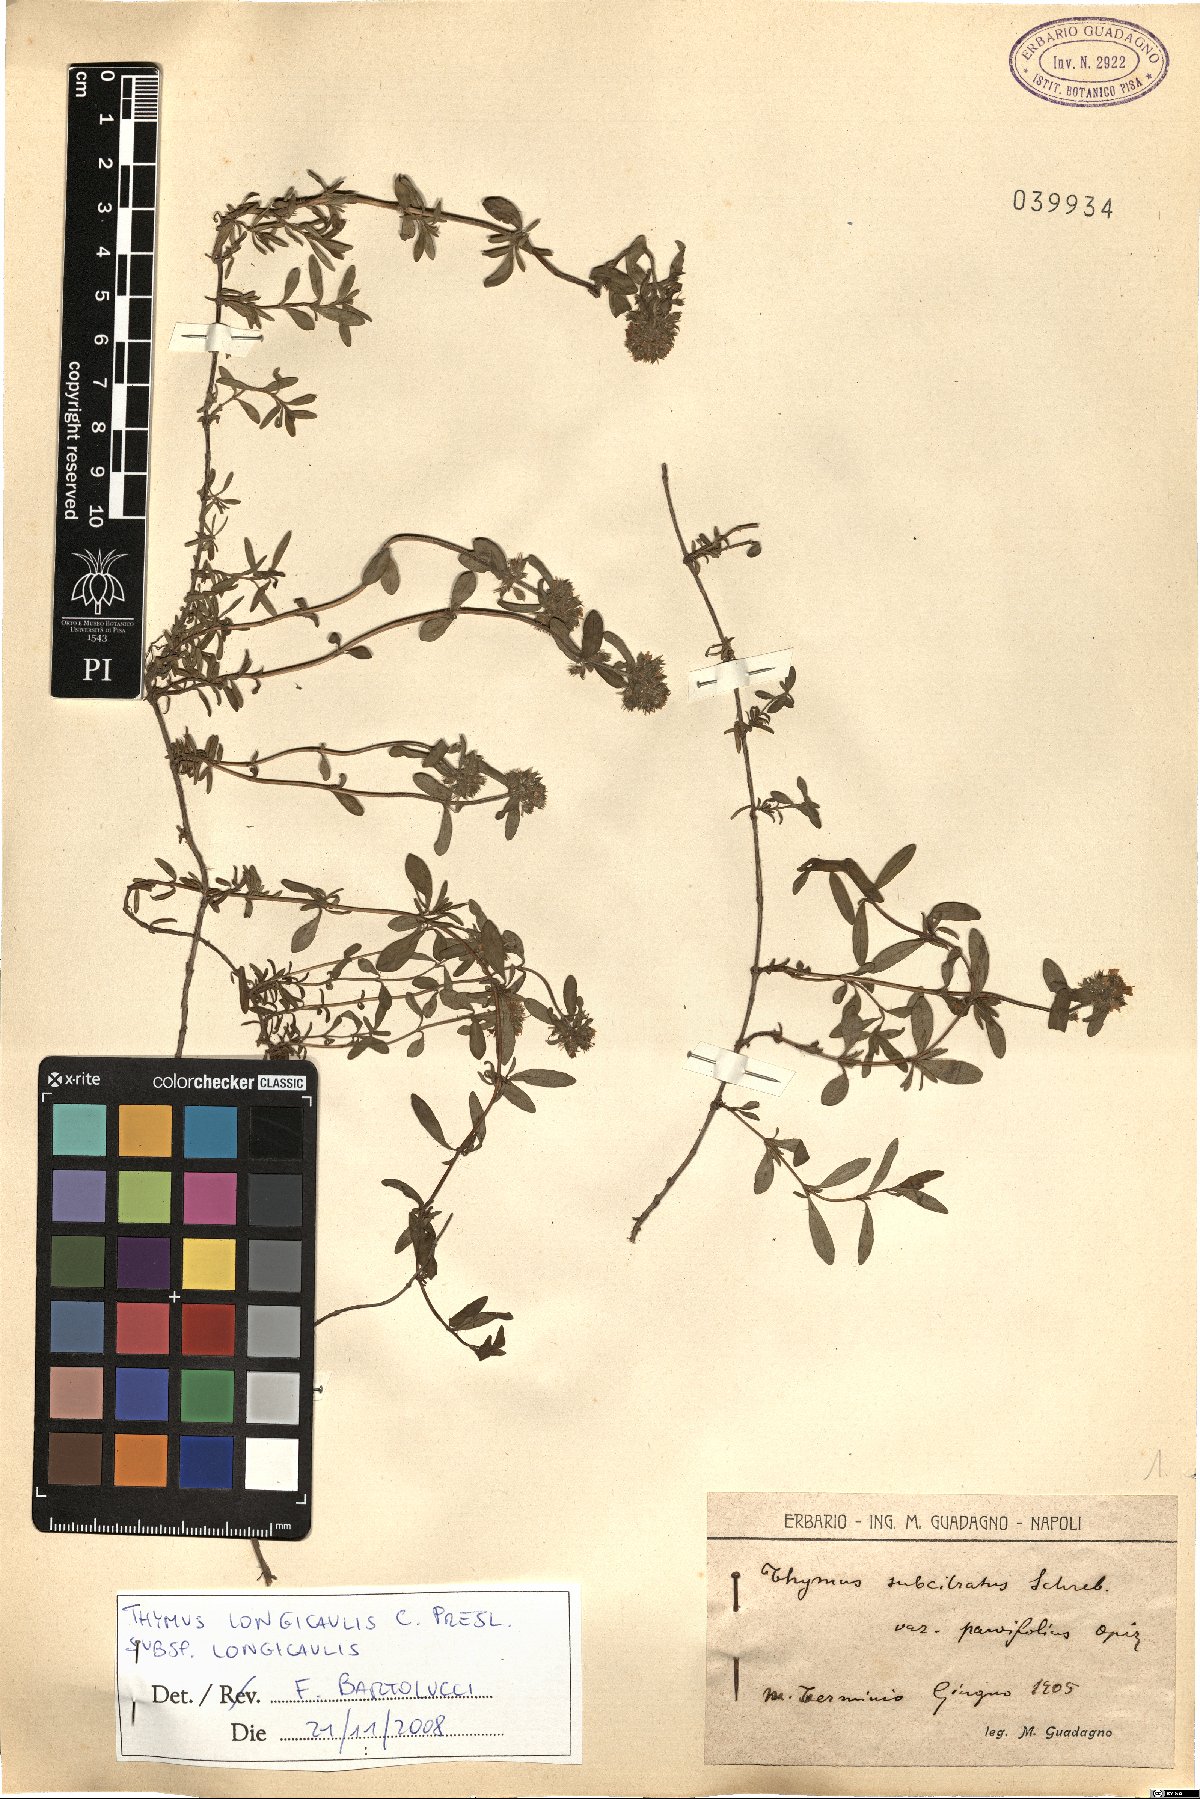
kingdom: Plantae
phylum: Tracheophyta
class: Magnoliopsida
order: Lamiales
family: Lamiaceae
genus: Thymus
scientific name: Thymus longicaulis
